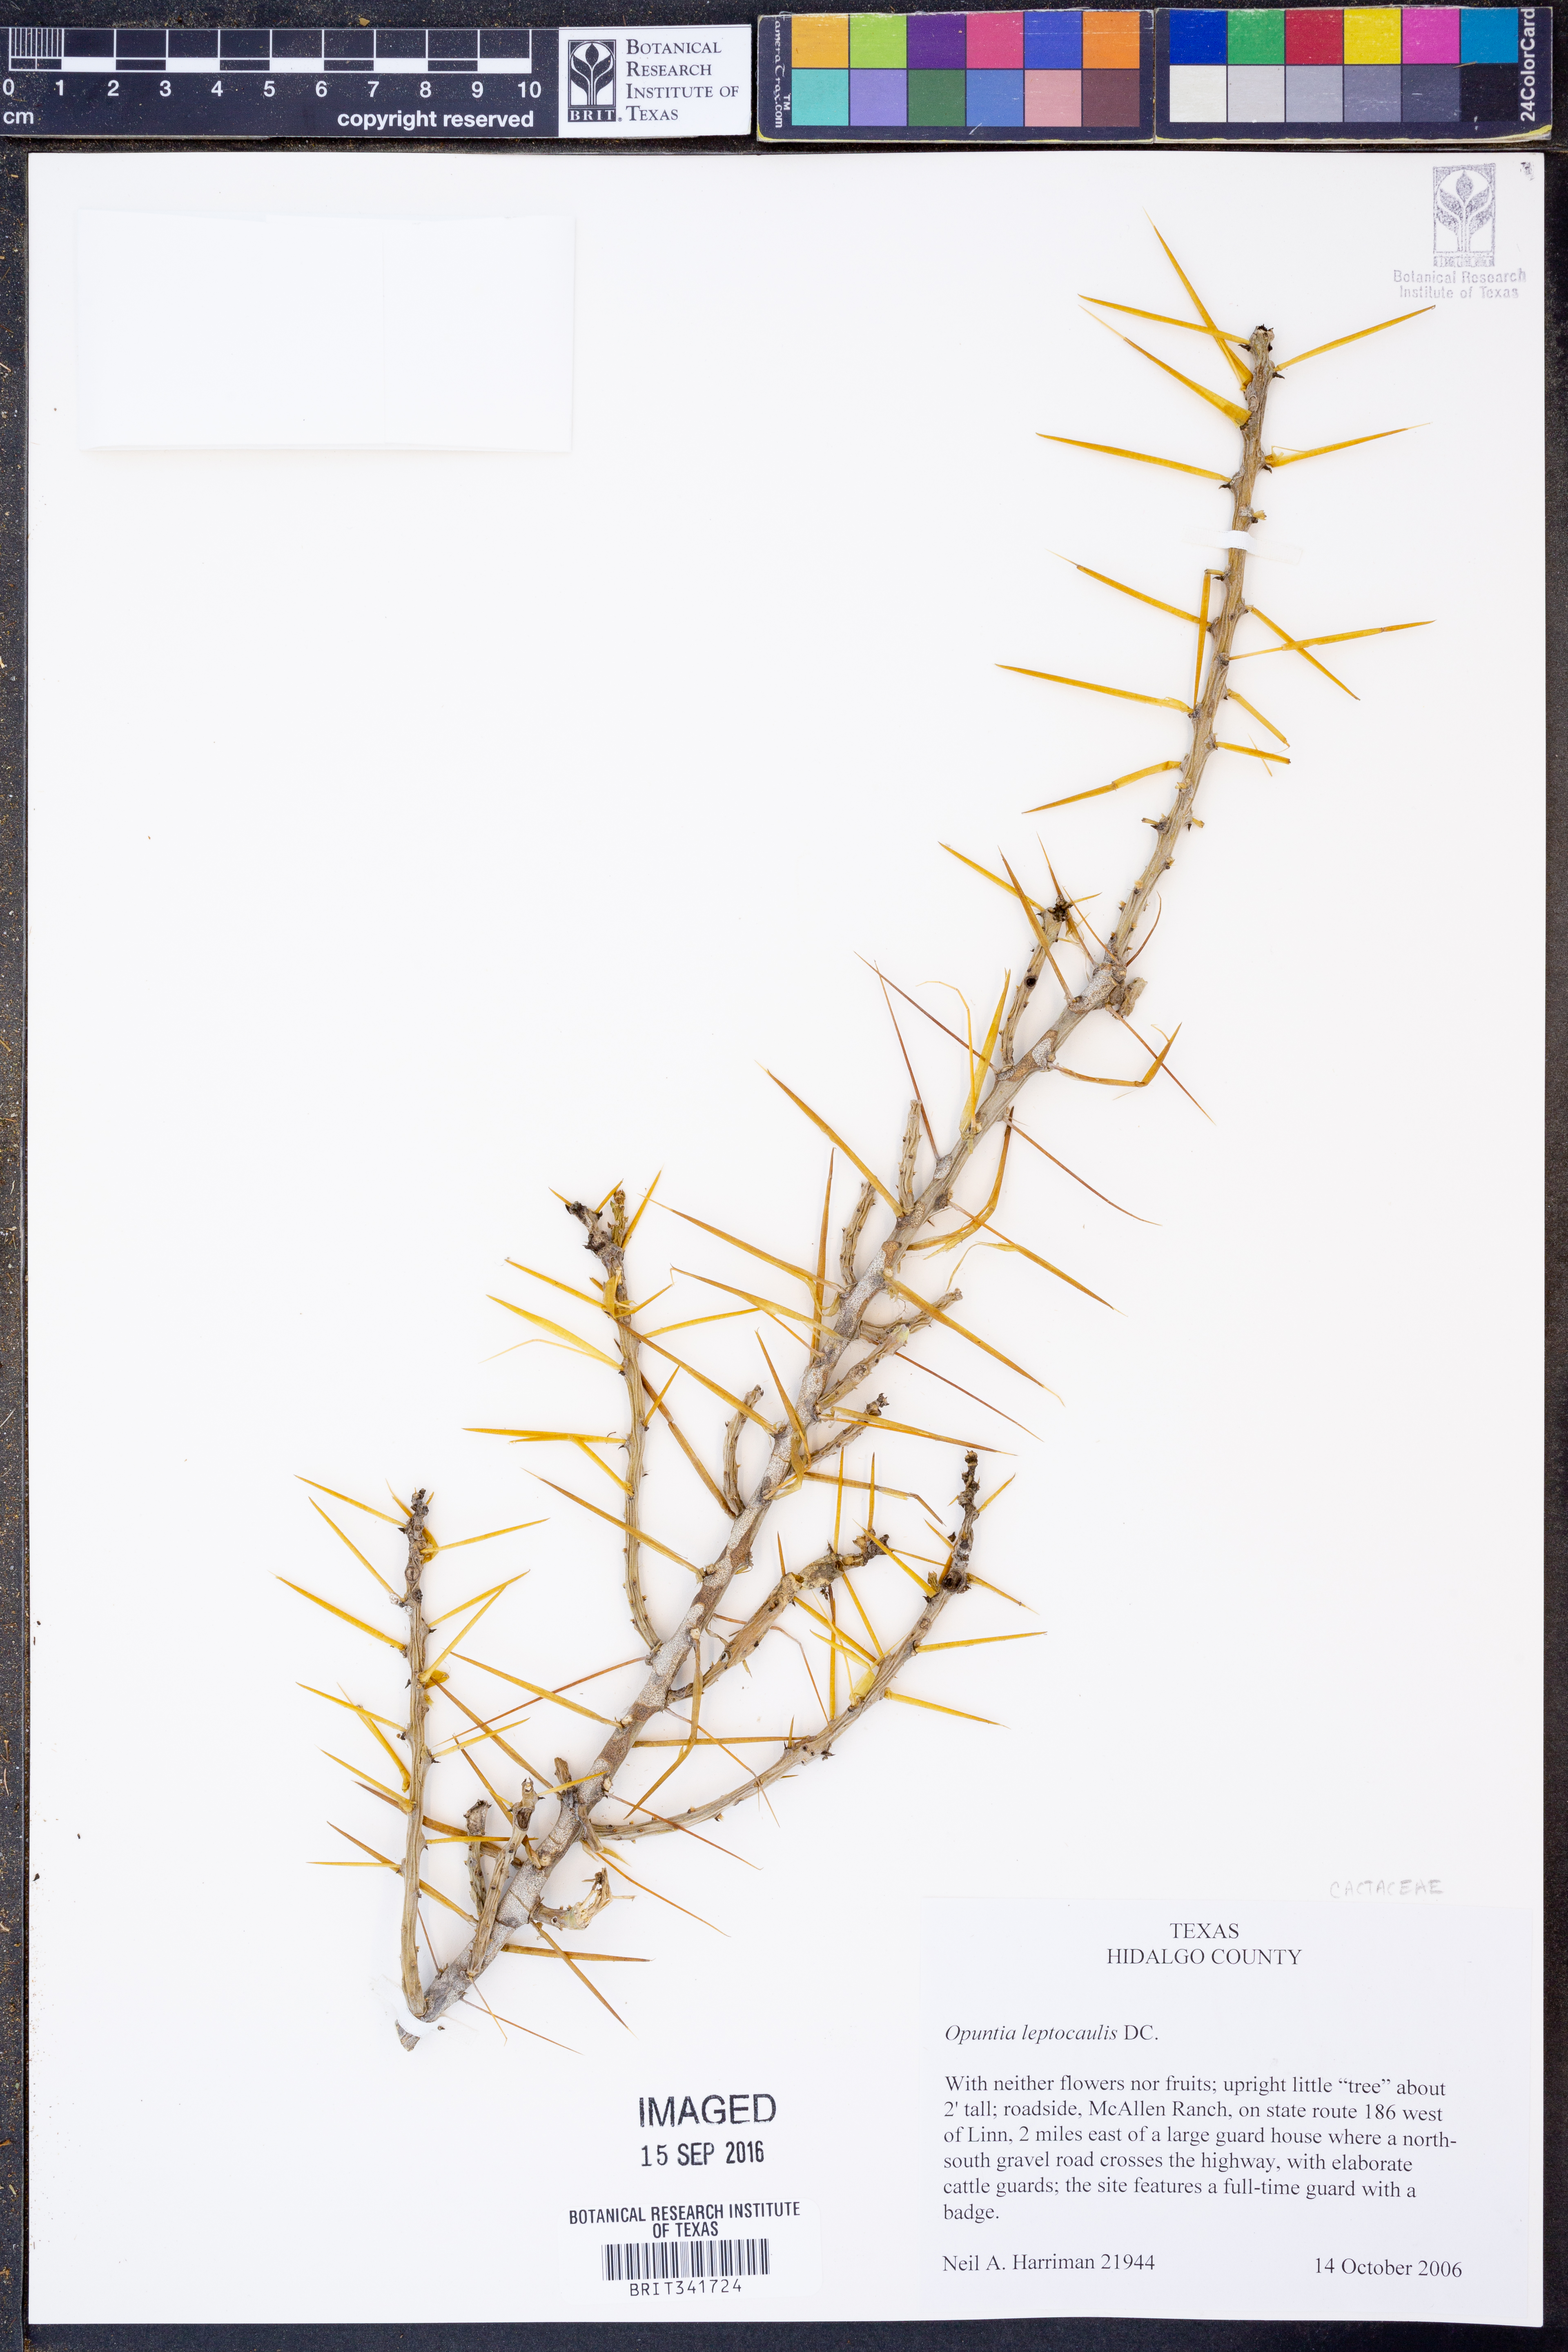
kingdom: Plantae
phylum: Tracheophyta
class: Magnoliopsida
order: Caryophyllales
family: Cactaceae
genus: Cylindropuntia
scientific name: Cylindropuntia leptocaulis
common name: Christmas cactus
